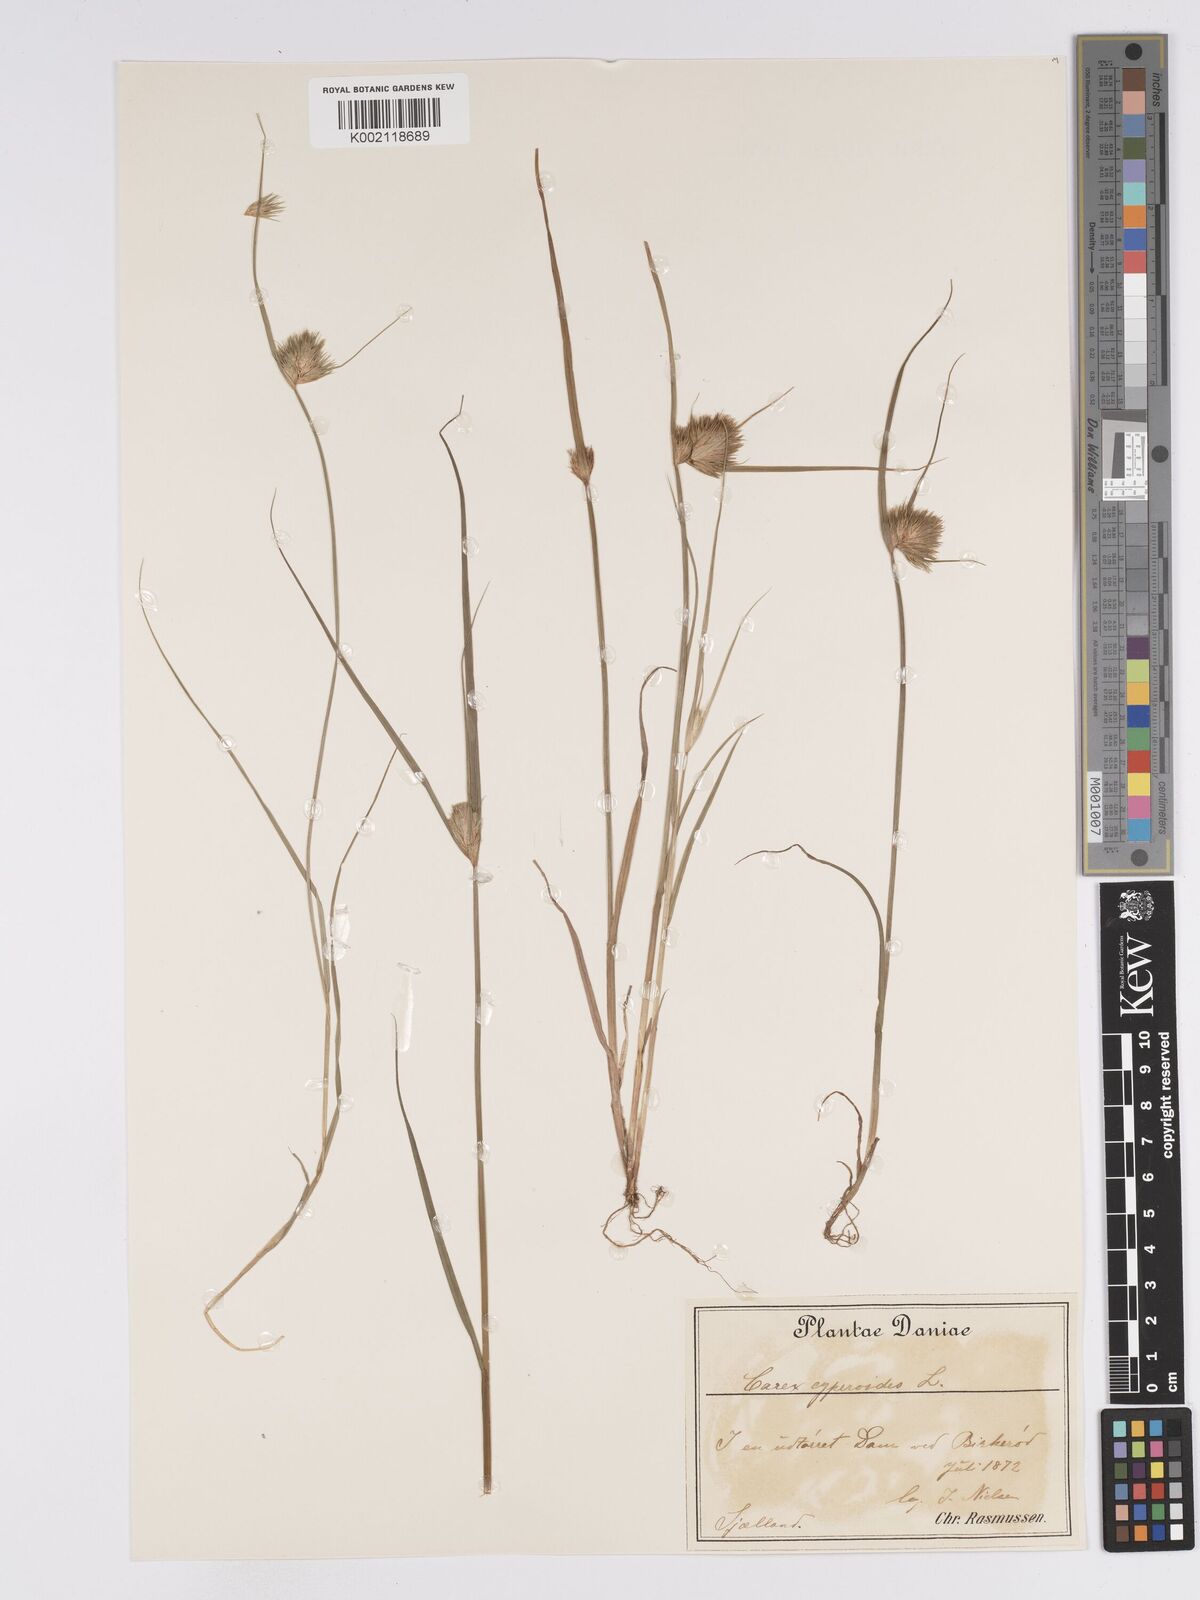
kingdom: Plantae
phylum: Tracheophyta
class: Liliopsida
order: Poales
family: Cyperaceae
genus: Carex
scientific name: Carex bohemica
